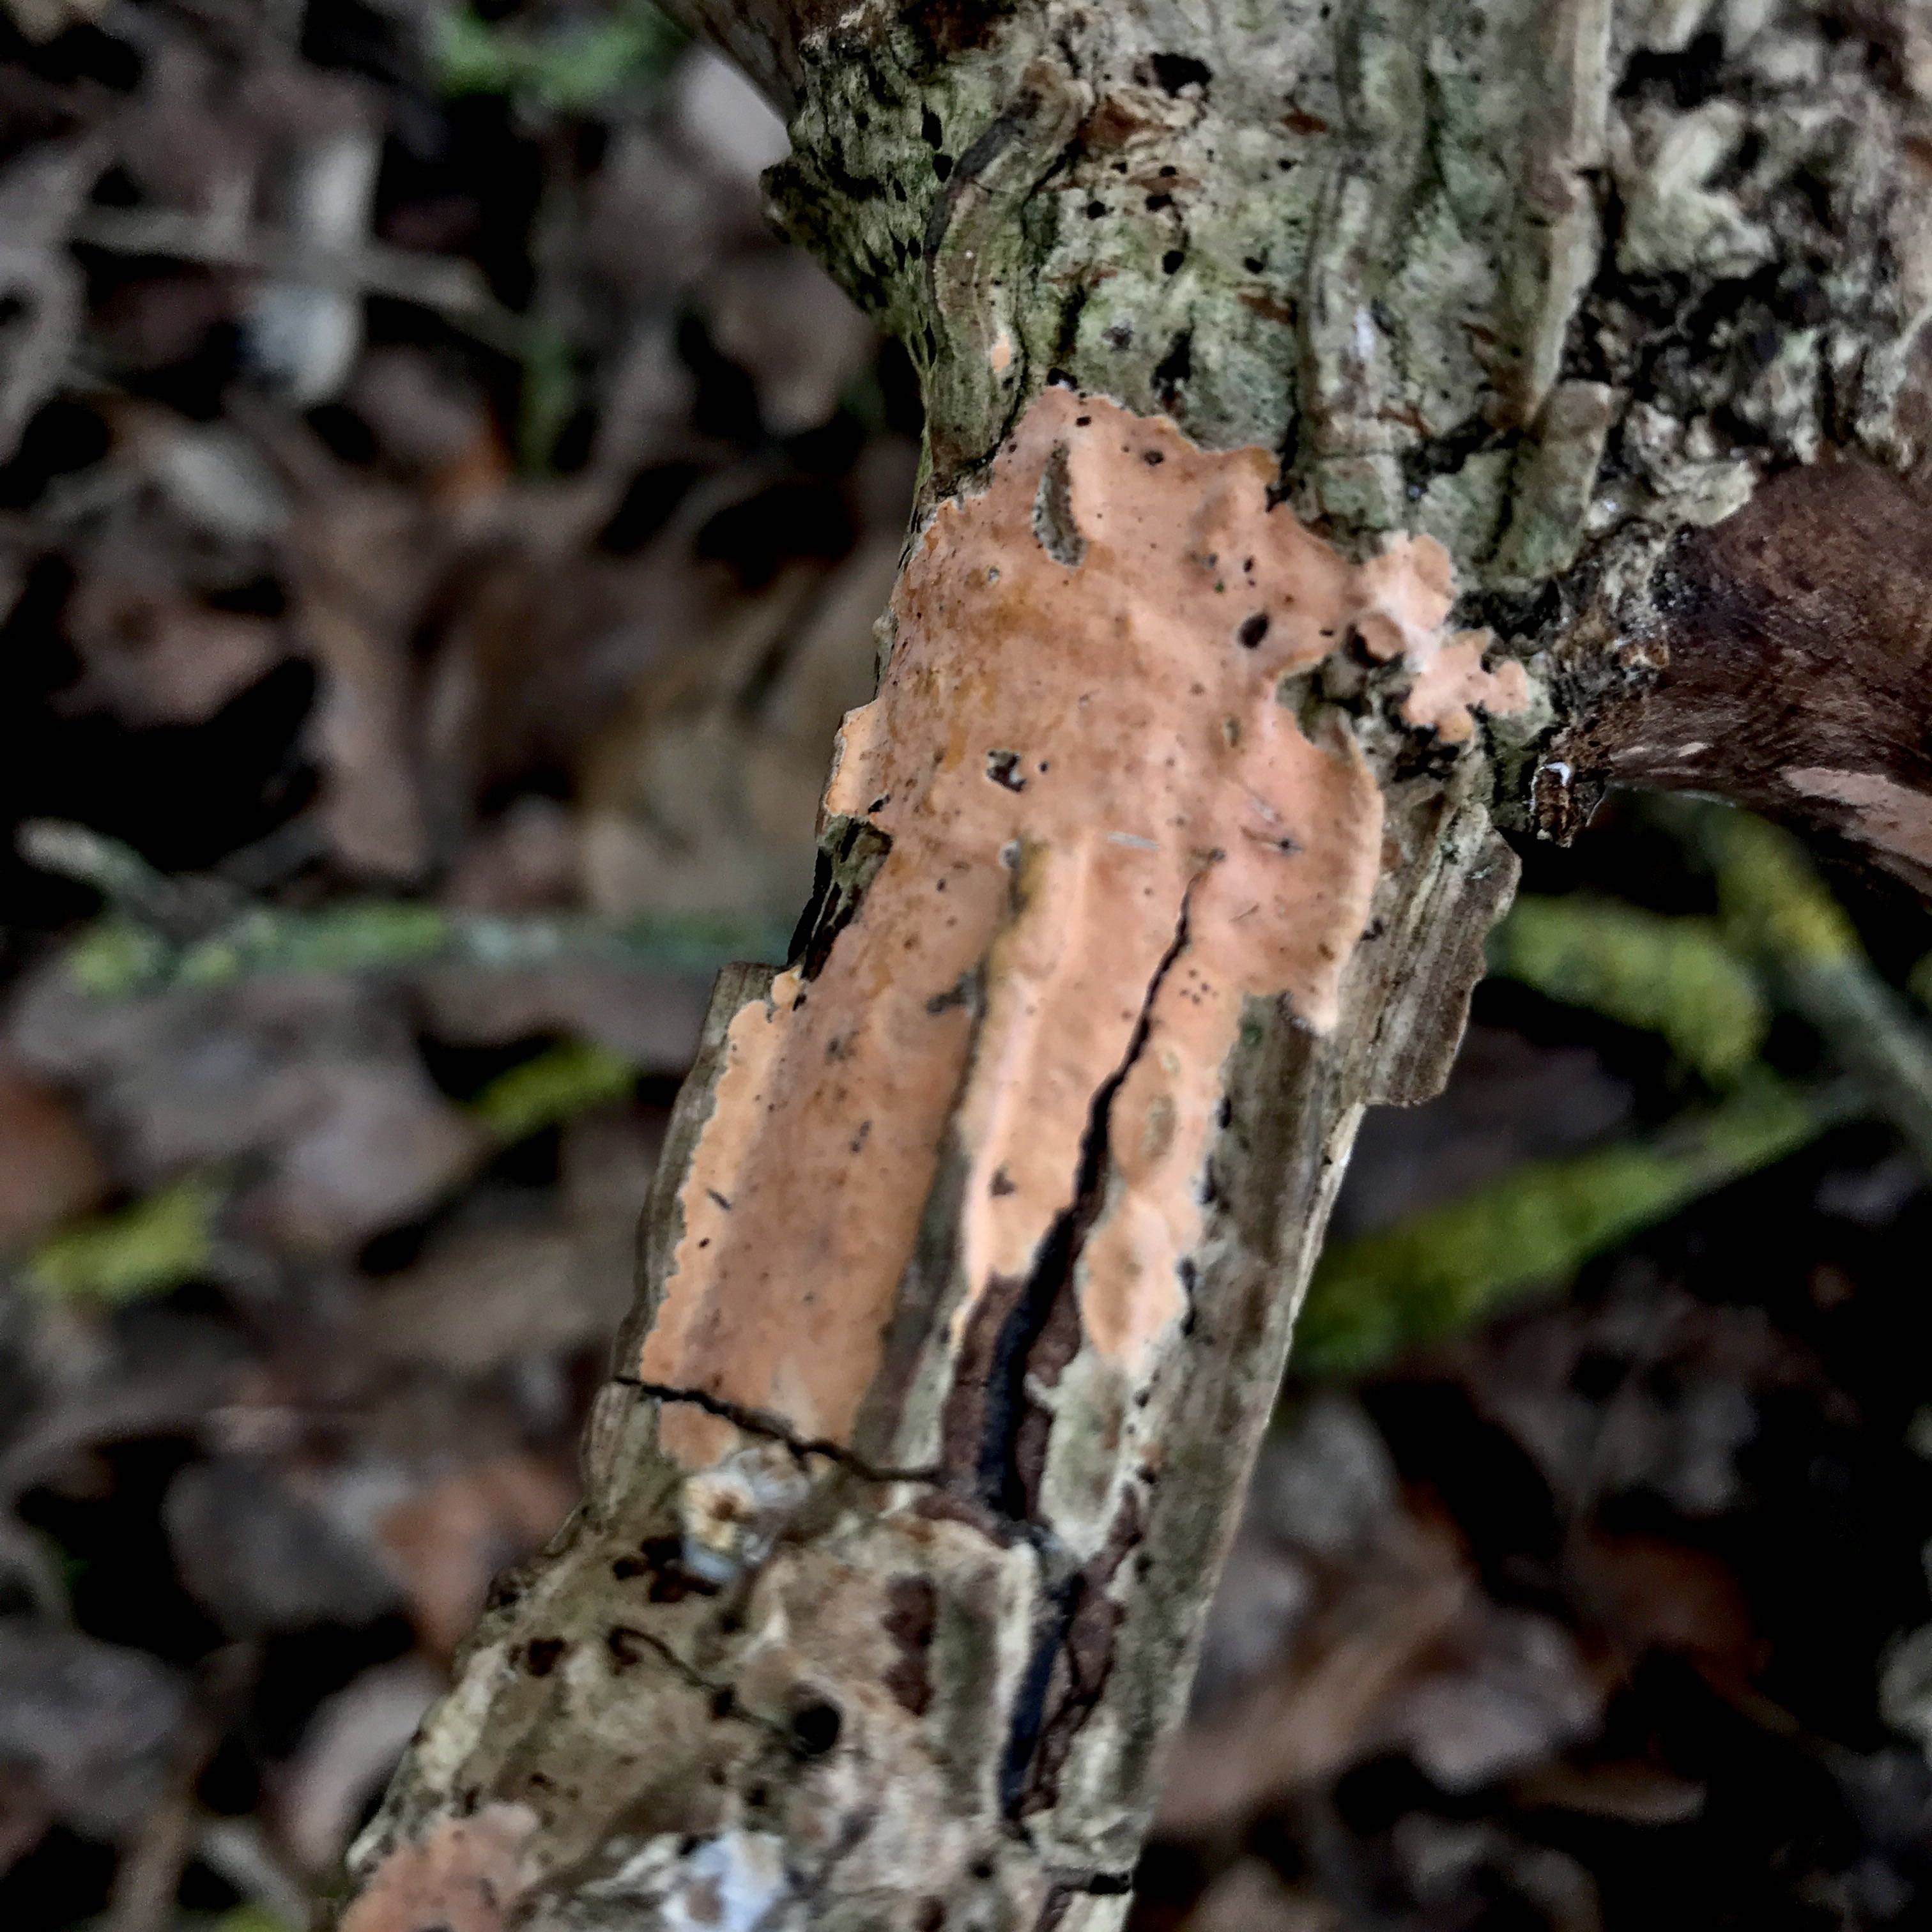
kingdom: Fungi
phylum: Basidiomycota
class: Agaricomycetes
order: Russulales
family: Peniophoraceae
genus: Peniophora
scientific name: Peniophora incarnata
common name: laksefarvet voksskind
